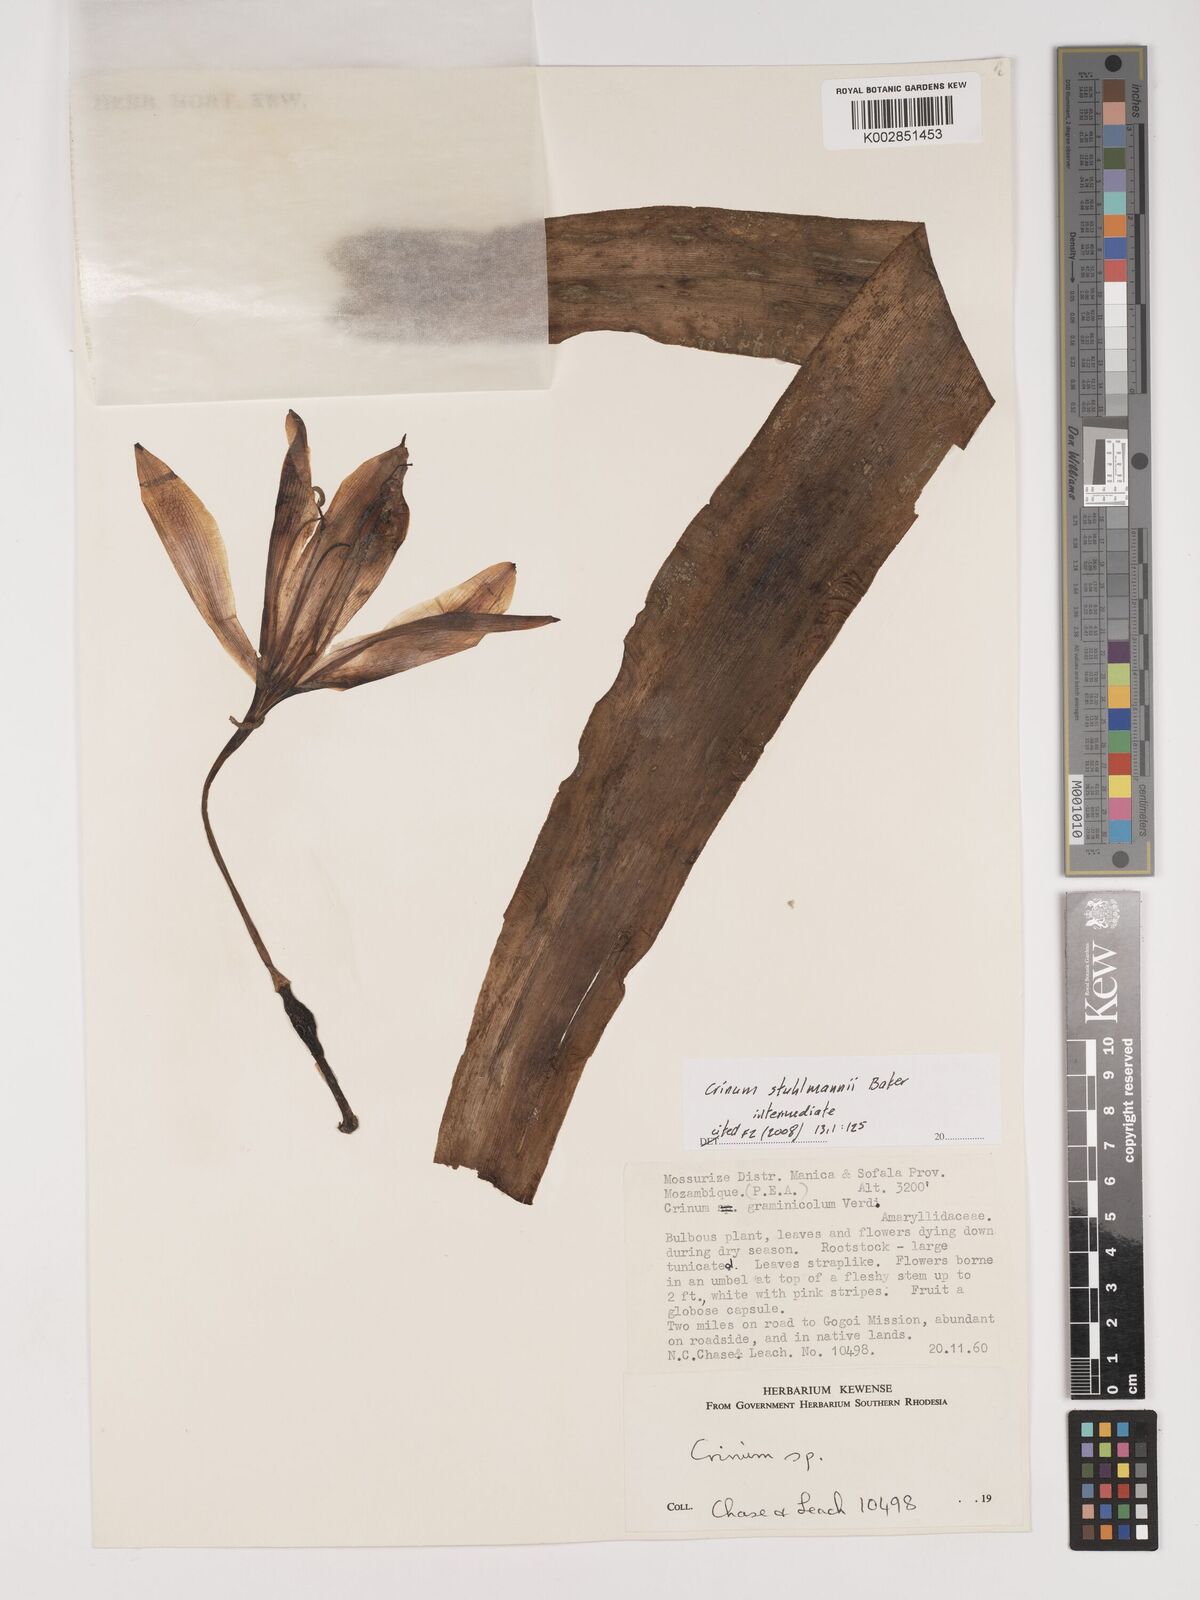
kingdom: Plantae
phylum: Tracheophyta
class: Liliopsida
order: Asparagales
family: Amaryllidaceae
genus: Crinum
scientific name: Crinum stuhlmannii
